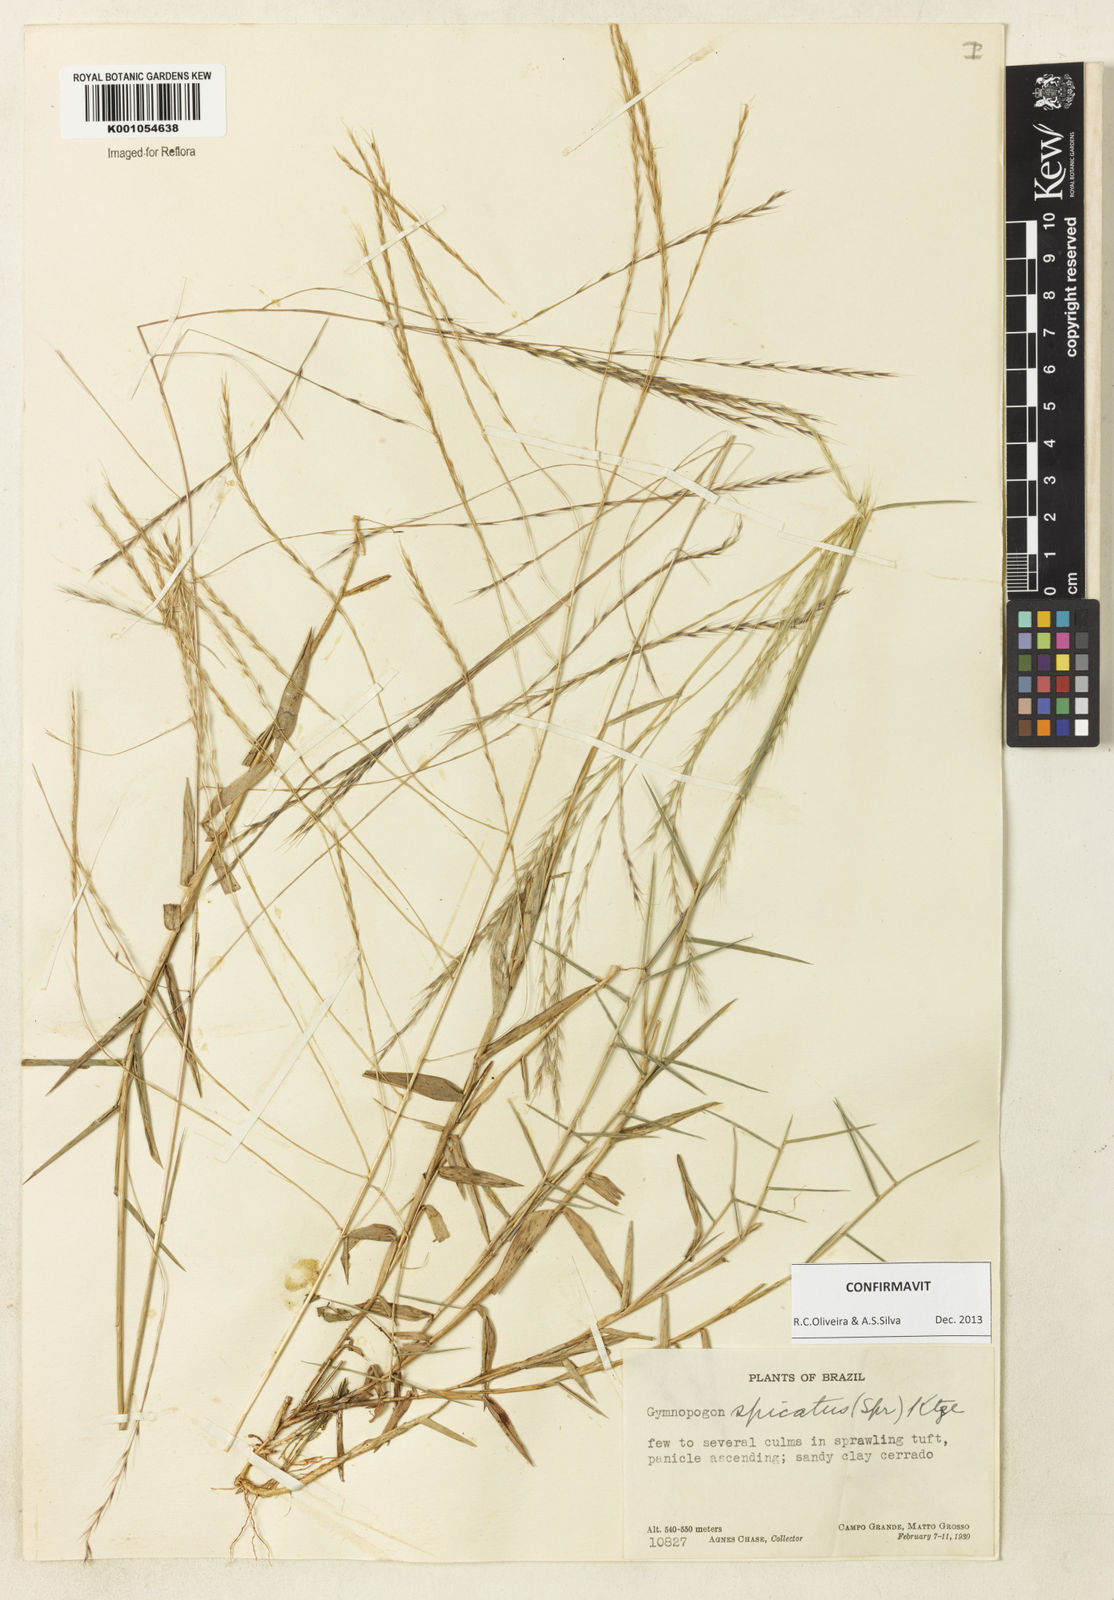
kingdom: Plantae
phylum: Tracheophyta
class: Liliopsida
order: Poales
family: Poaceae
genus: Gymnopogon
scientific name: Gymnopogon spicatus
